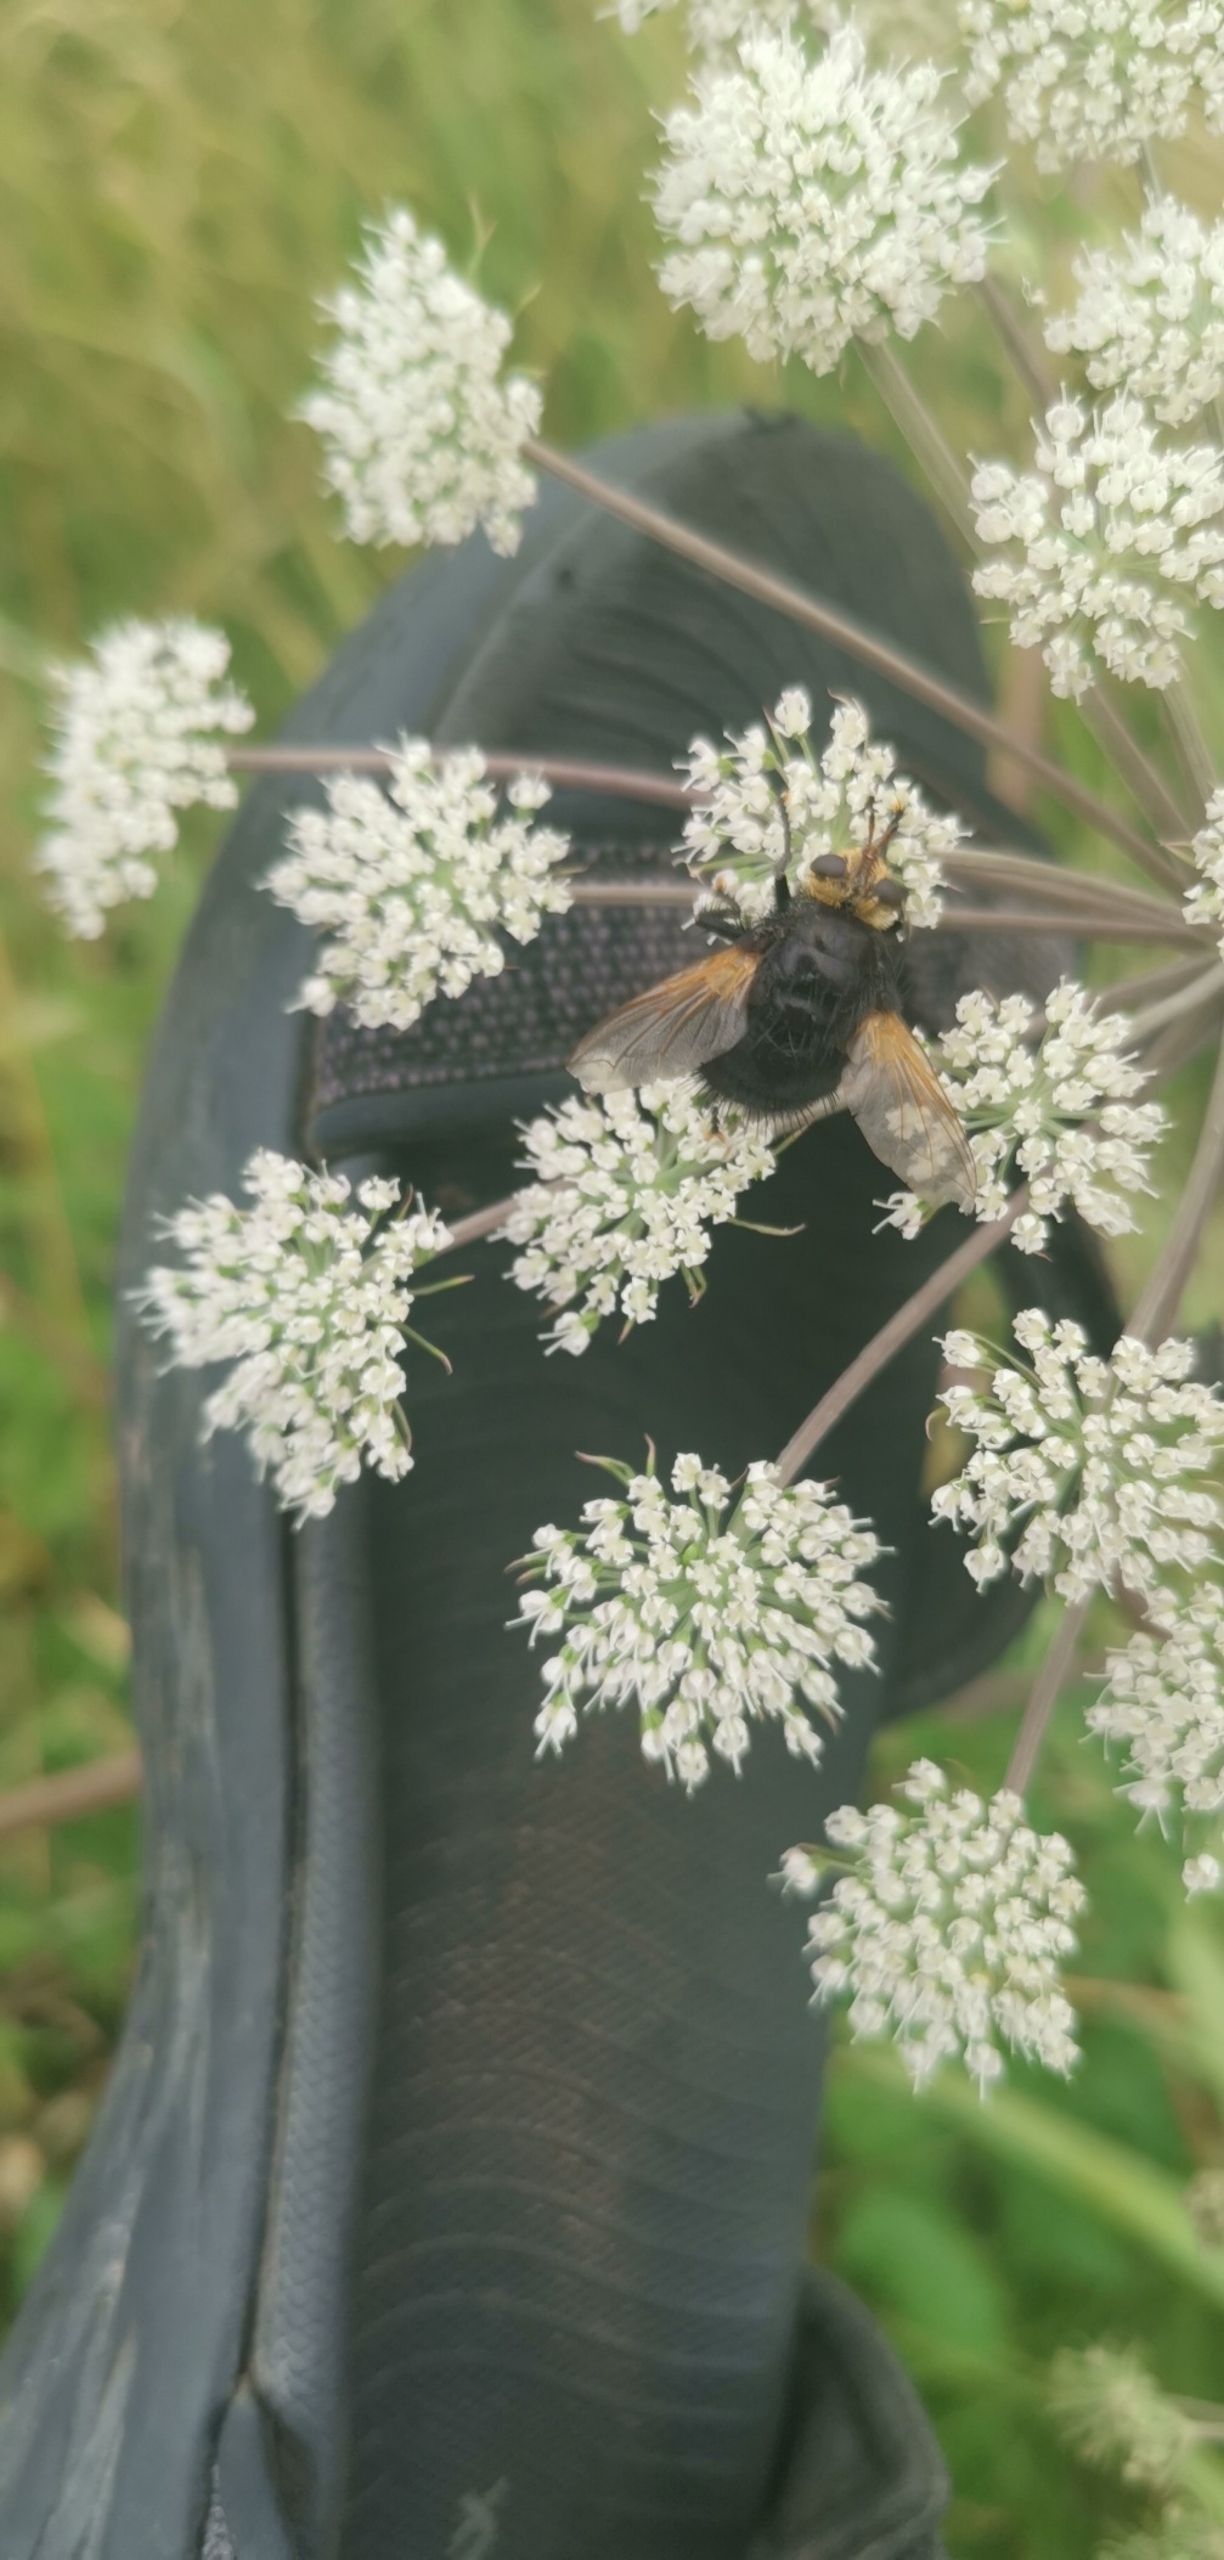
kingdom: Animalia
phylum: Arthropoda
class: Insecta
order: Diptera
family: Tachinidae
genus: Tachina
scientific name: Tachina grossa
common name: Kæmpefluen Harald
